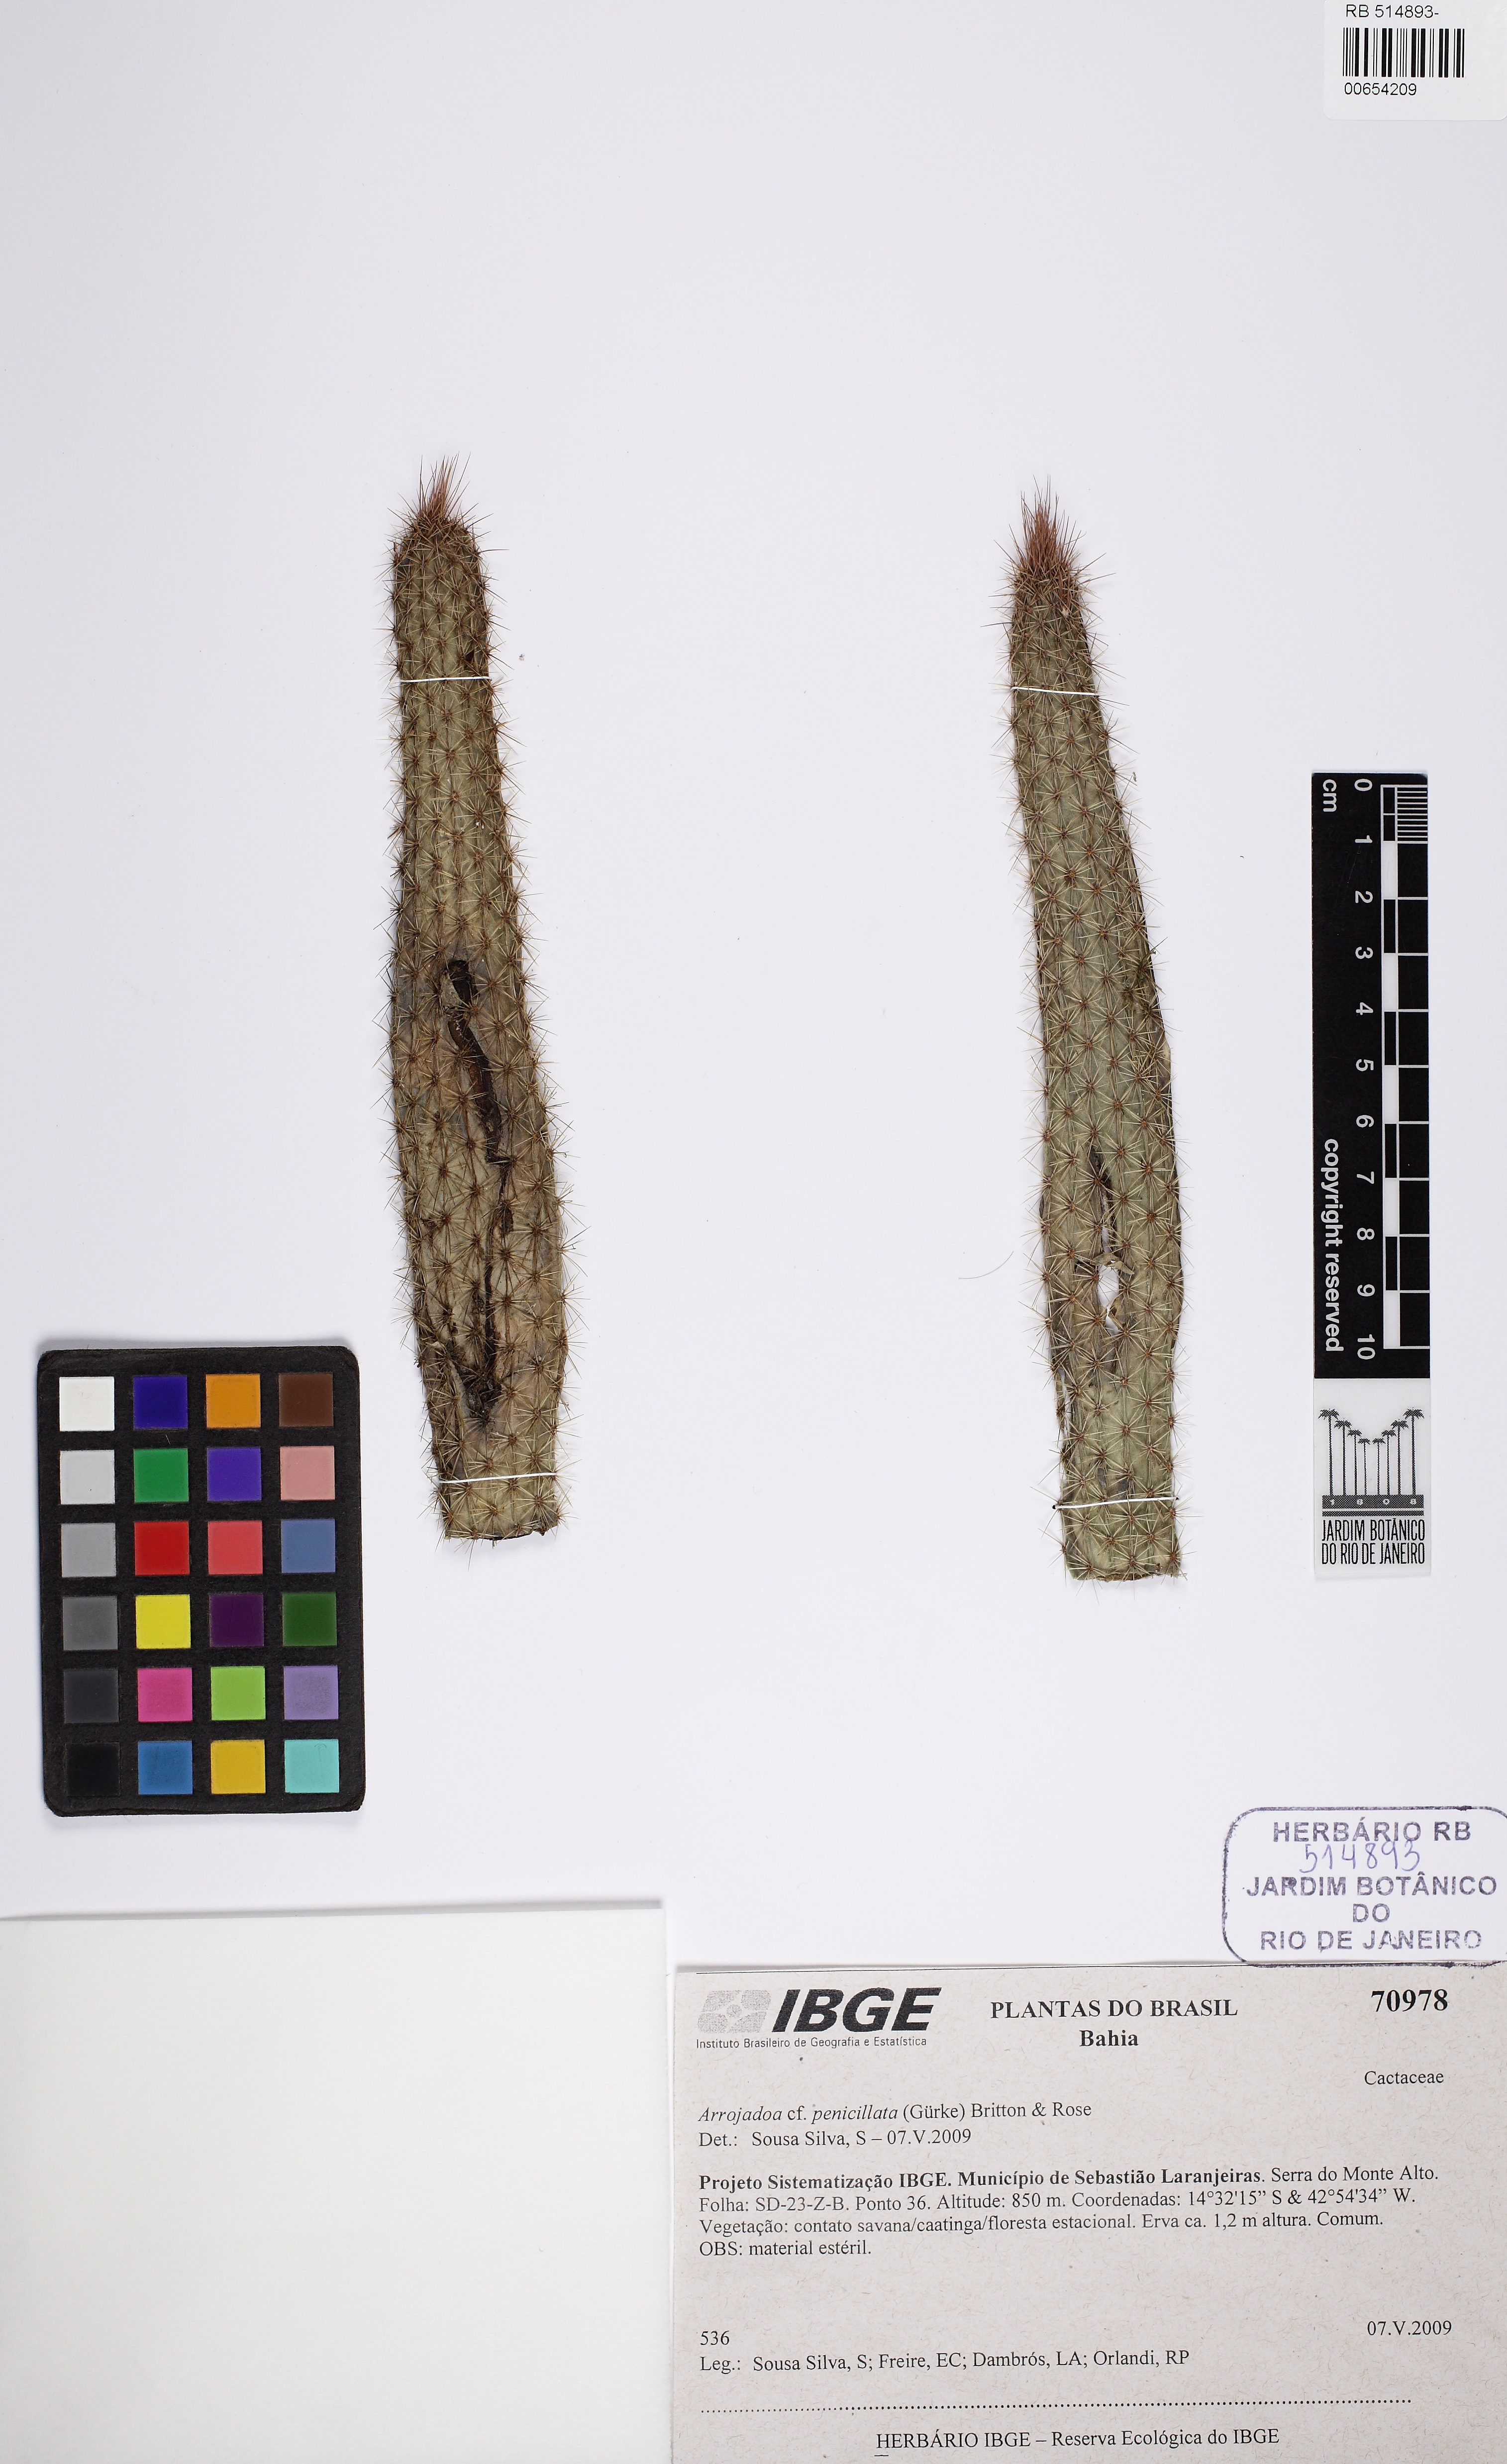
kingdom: Plantae
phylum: Tracheophyta
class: Magnoliopsida
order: Caryophyllales
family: Cactaceae
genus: Arrojadoa
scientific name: Arrojadoa penicillata
